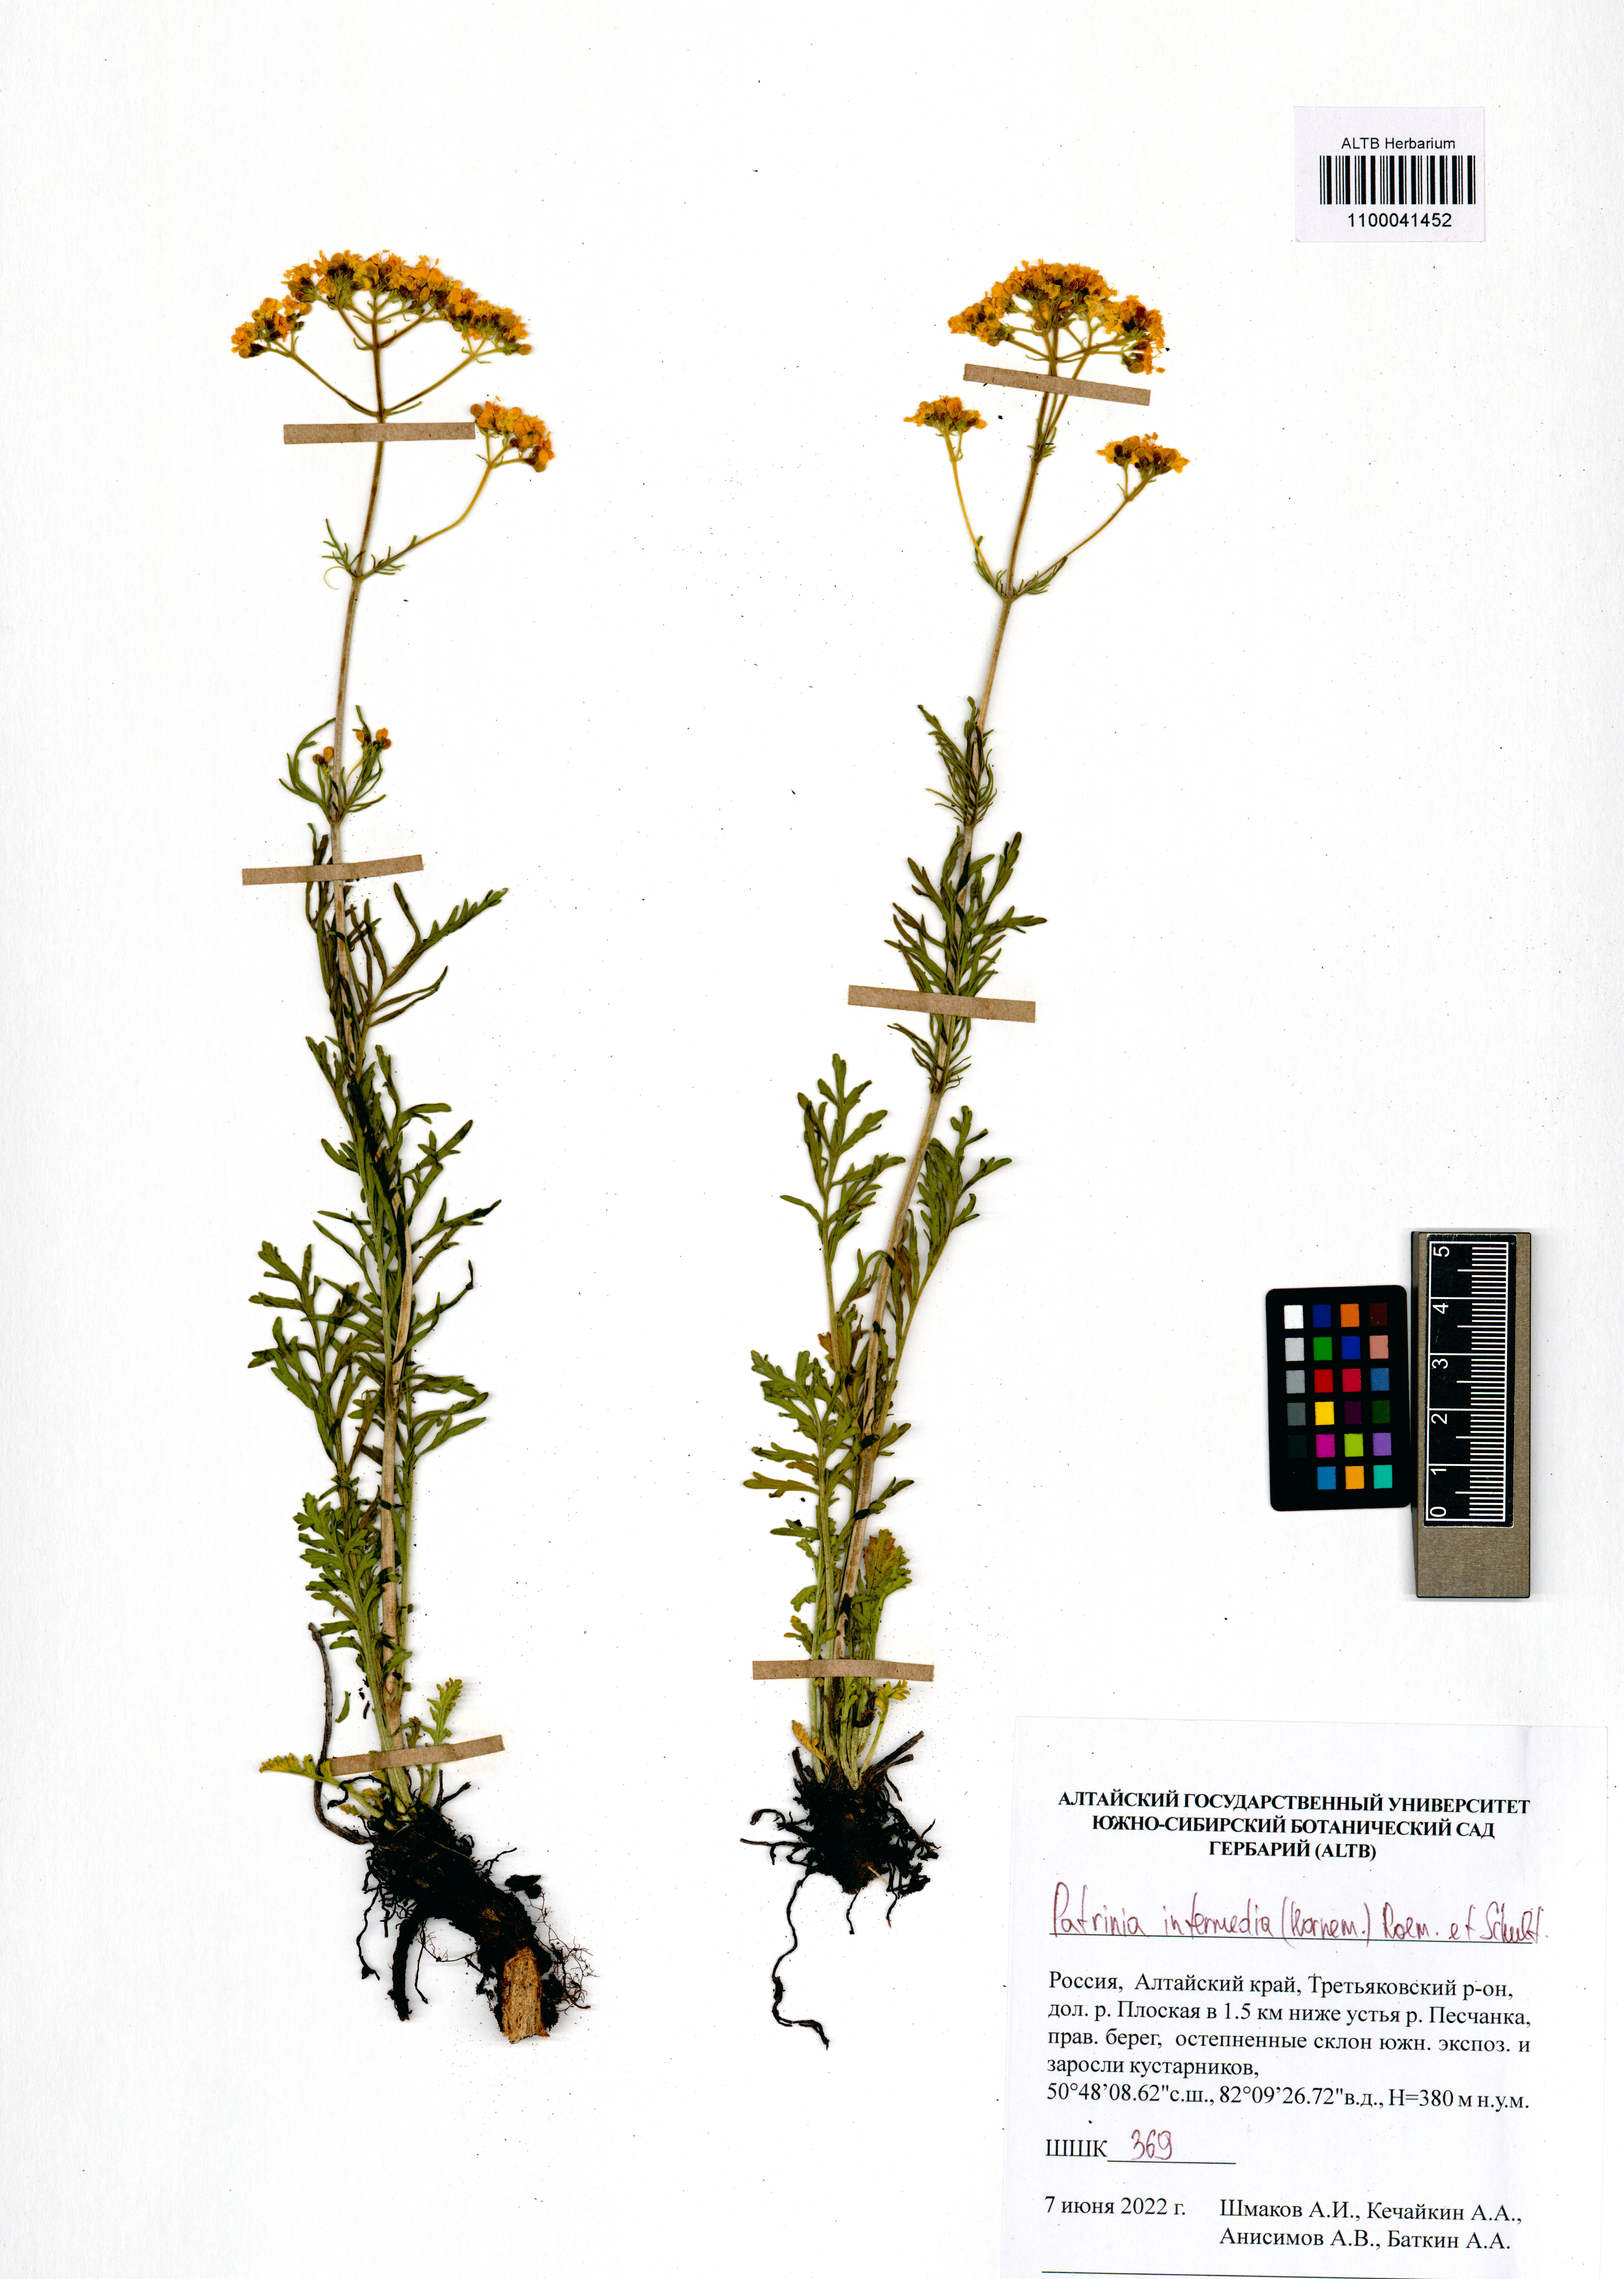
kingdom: Plantae
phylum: Tracheophyta
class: Magnoliopsida
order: Dipsacales
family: Caprifoliaceae
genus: Patrinia
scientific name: Patrinia intermedia
